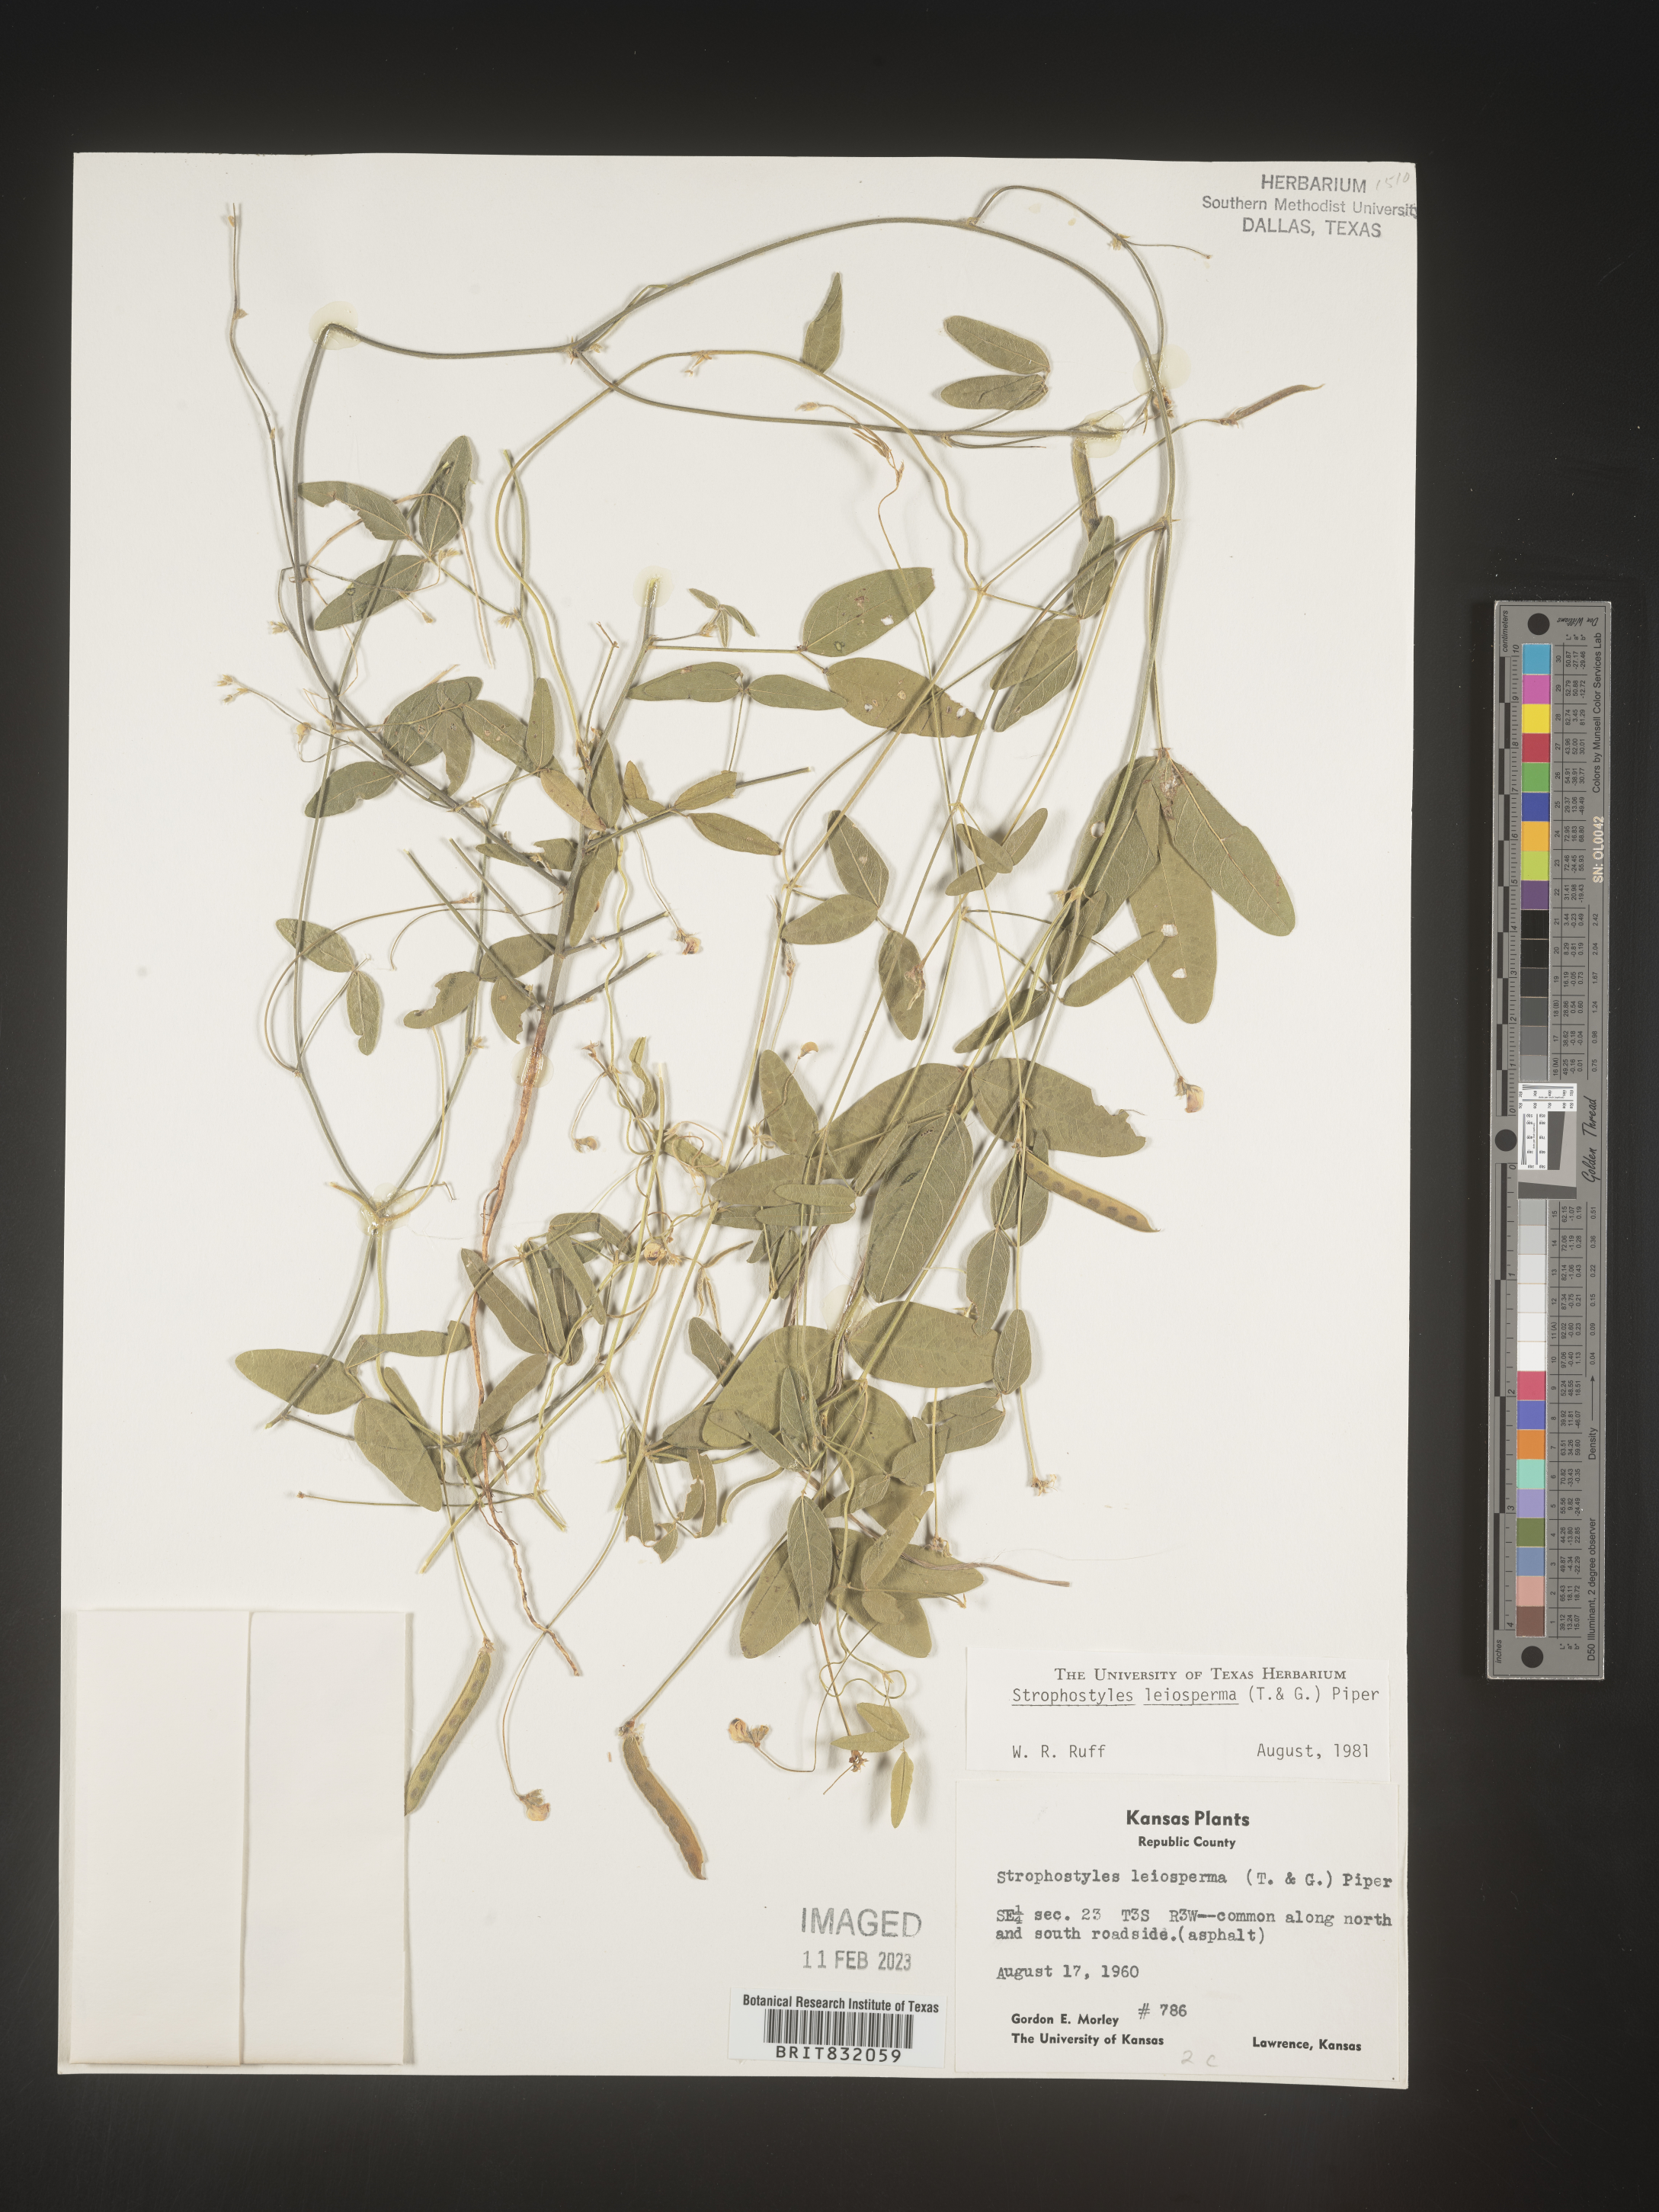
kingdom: Plantae
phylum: Tracheophyta
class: Magnoliopsida
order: Fabales
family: Fabaceae
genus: Strophostyles
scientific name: Strophostyles leiosperma
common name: Smooth-seed wild bean
